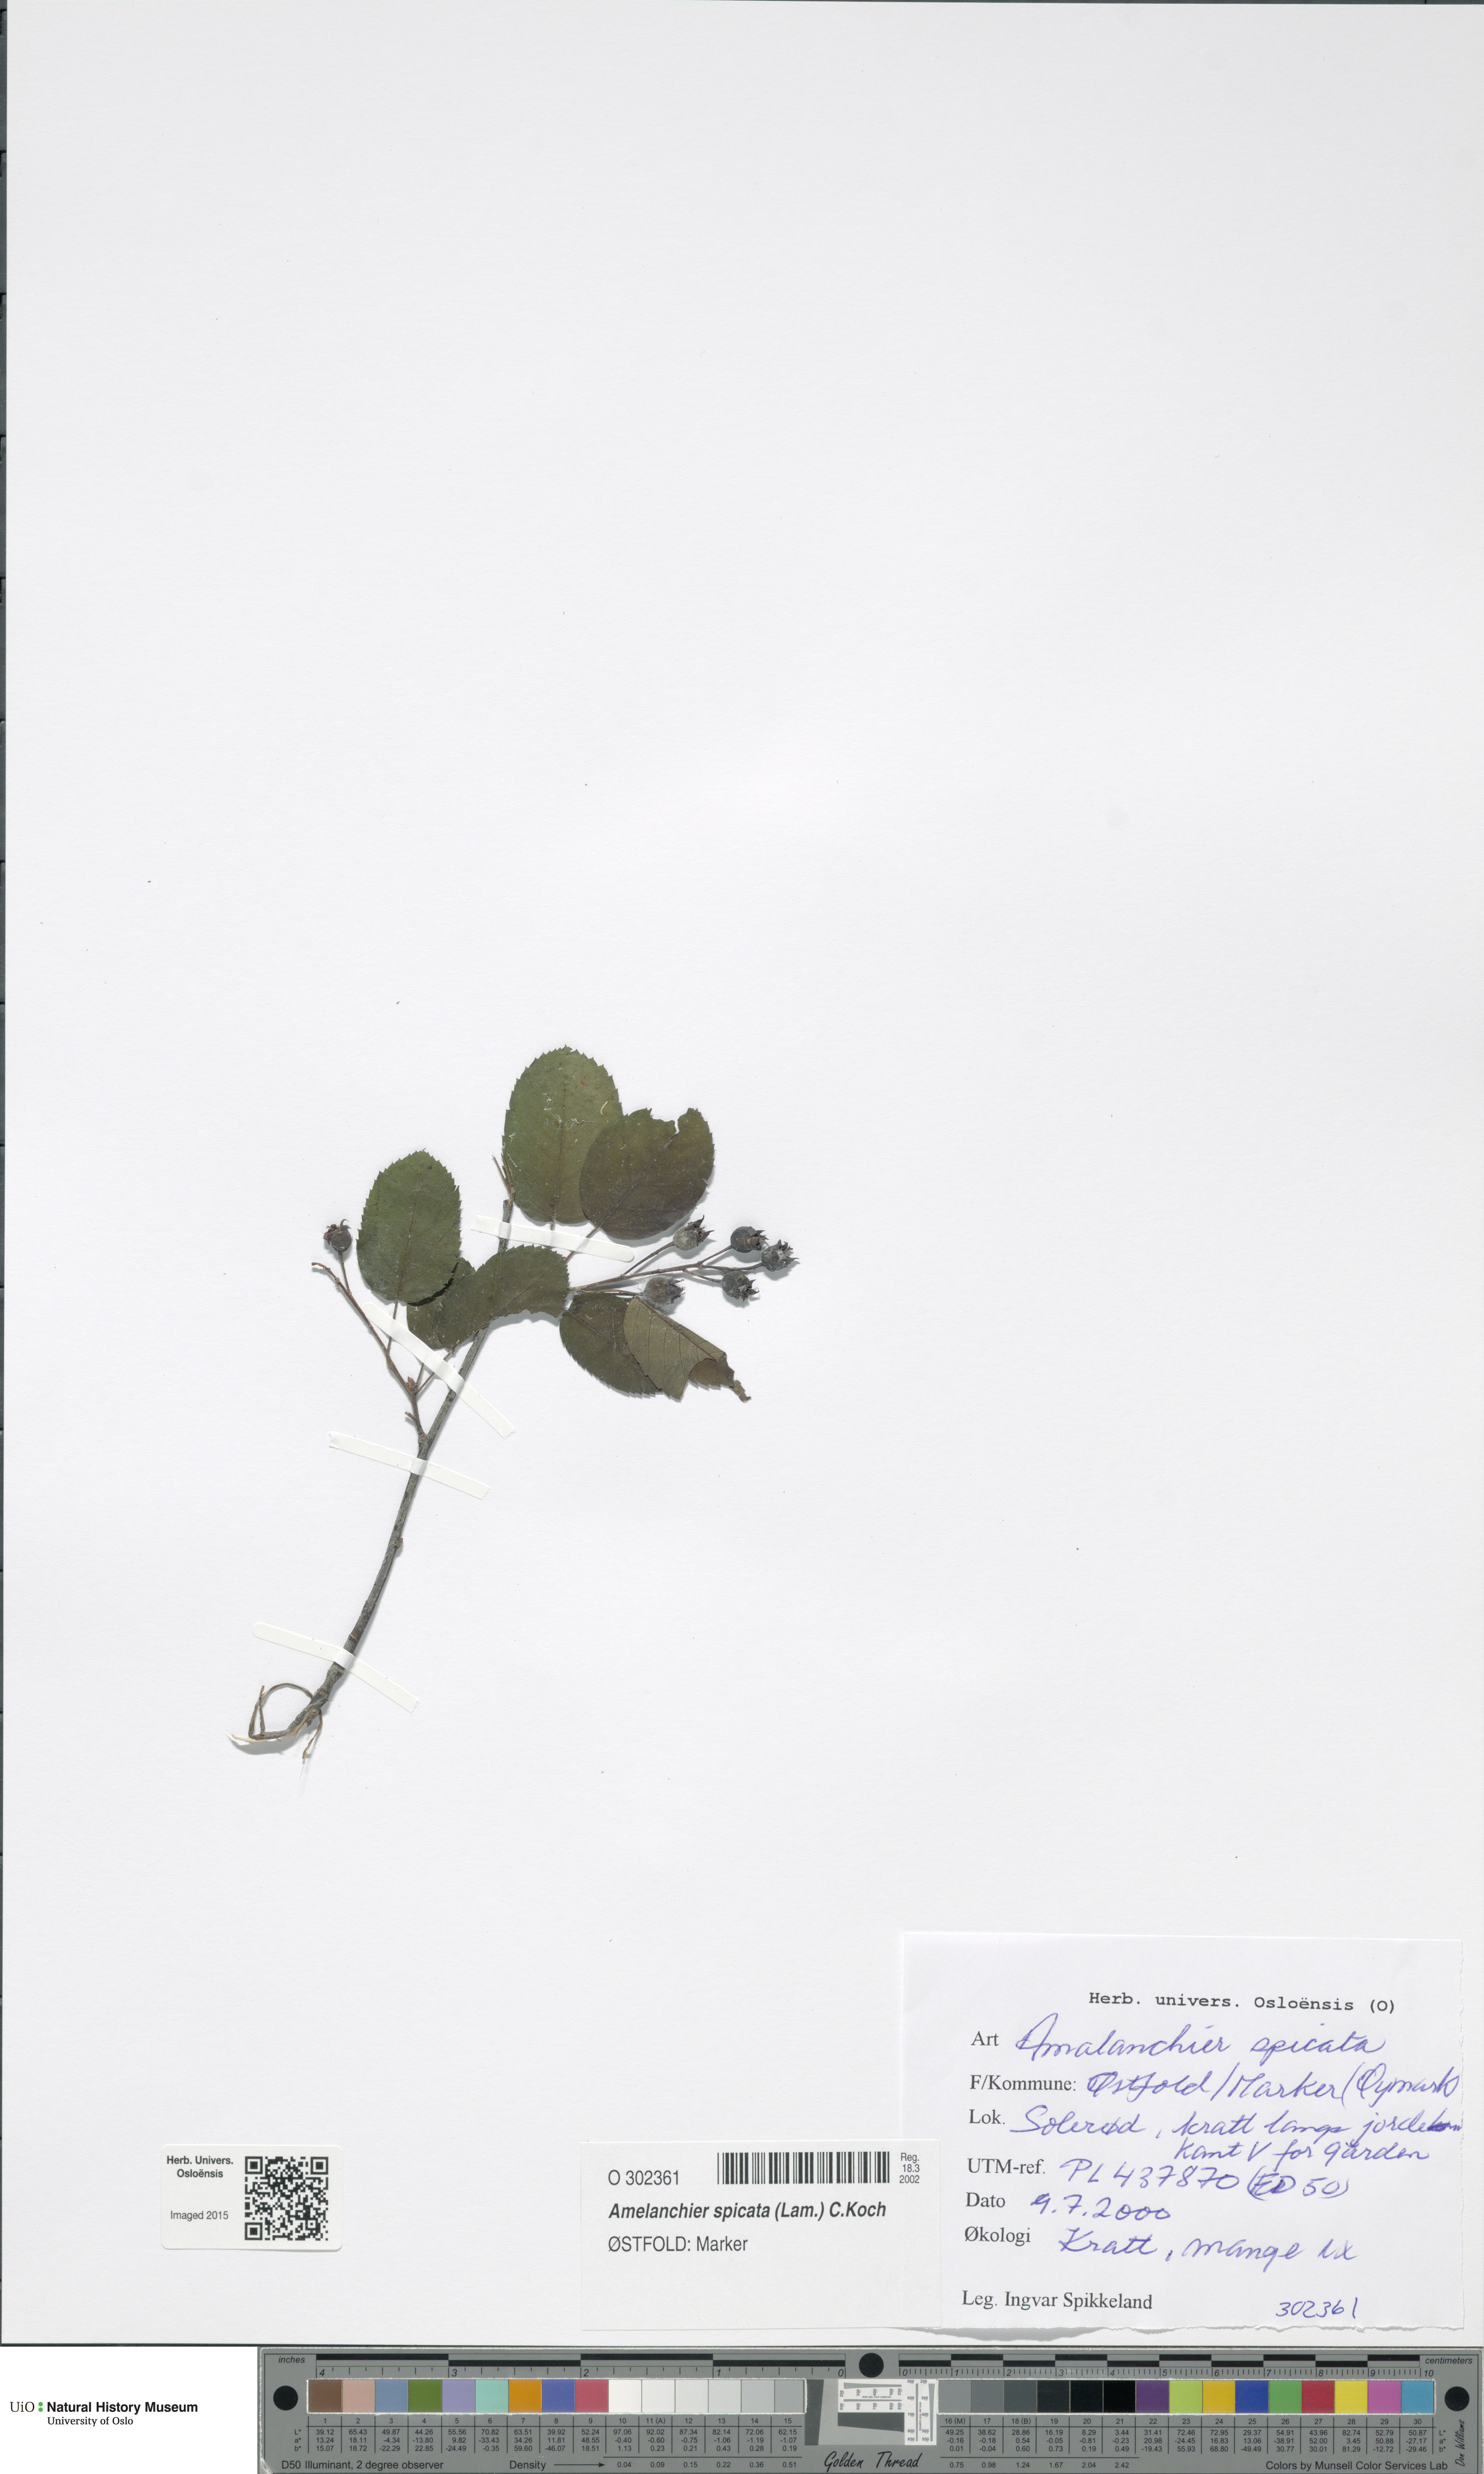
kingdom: Plantae
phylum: Tracheophyta
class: Magnoliopsida
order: Rosales
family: Rosaceae
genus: Amelanchier
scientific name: Amelanchier humilis
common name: Low juneberry
